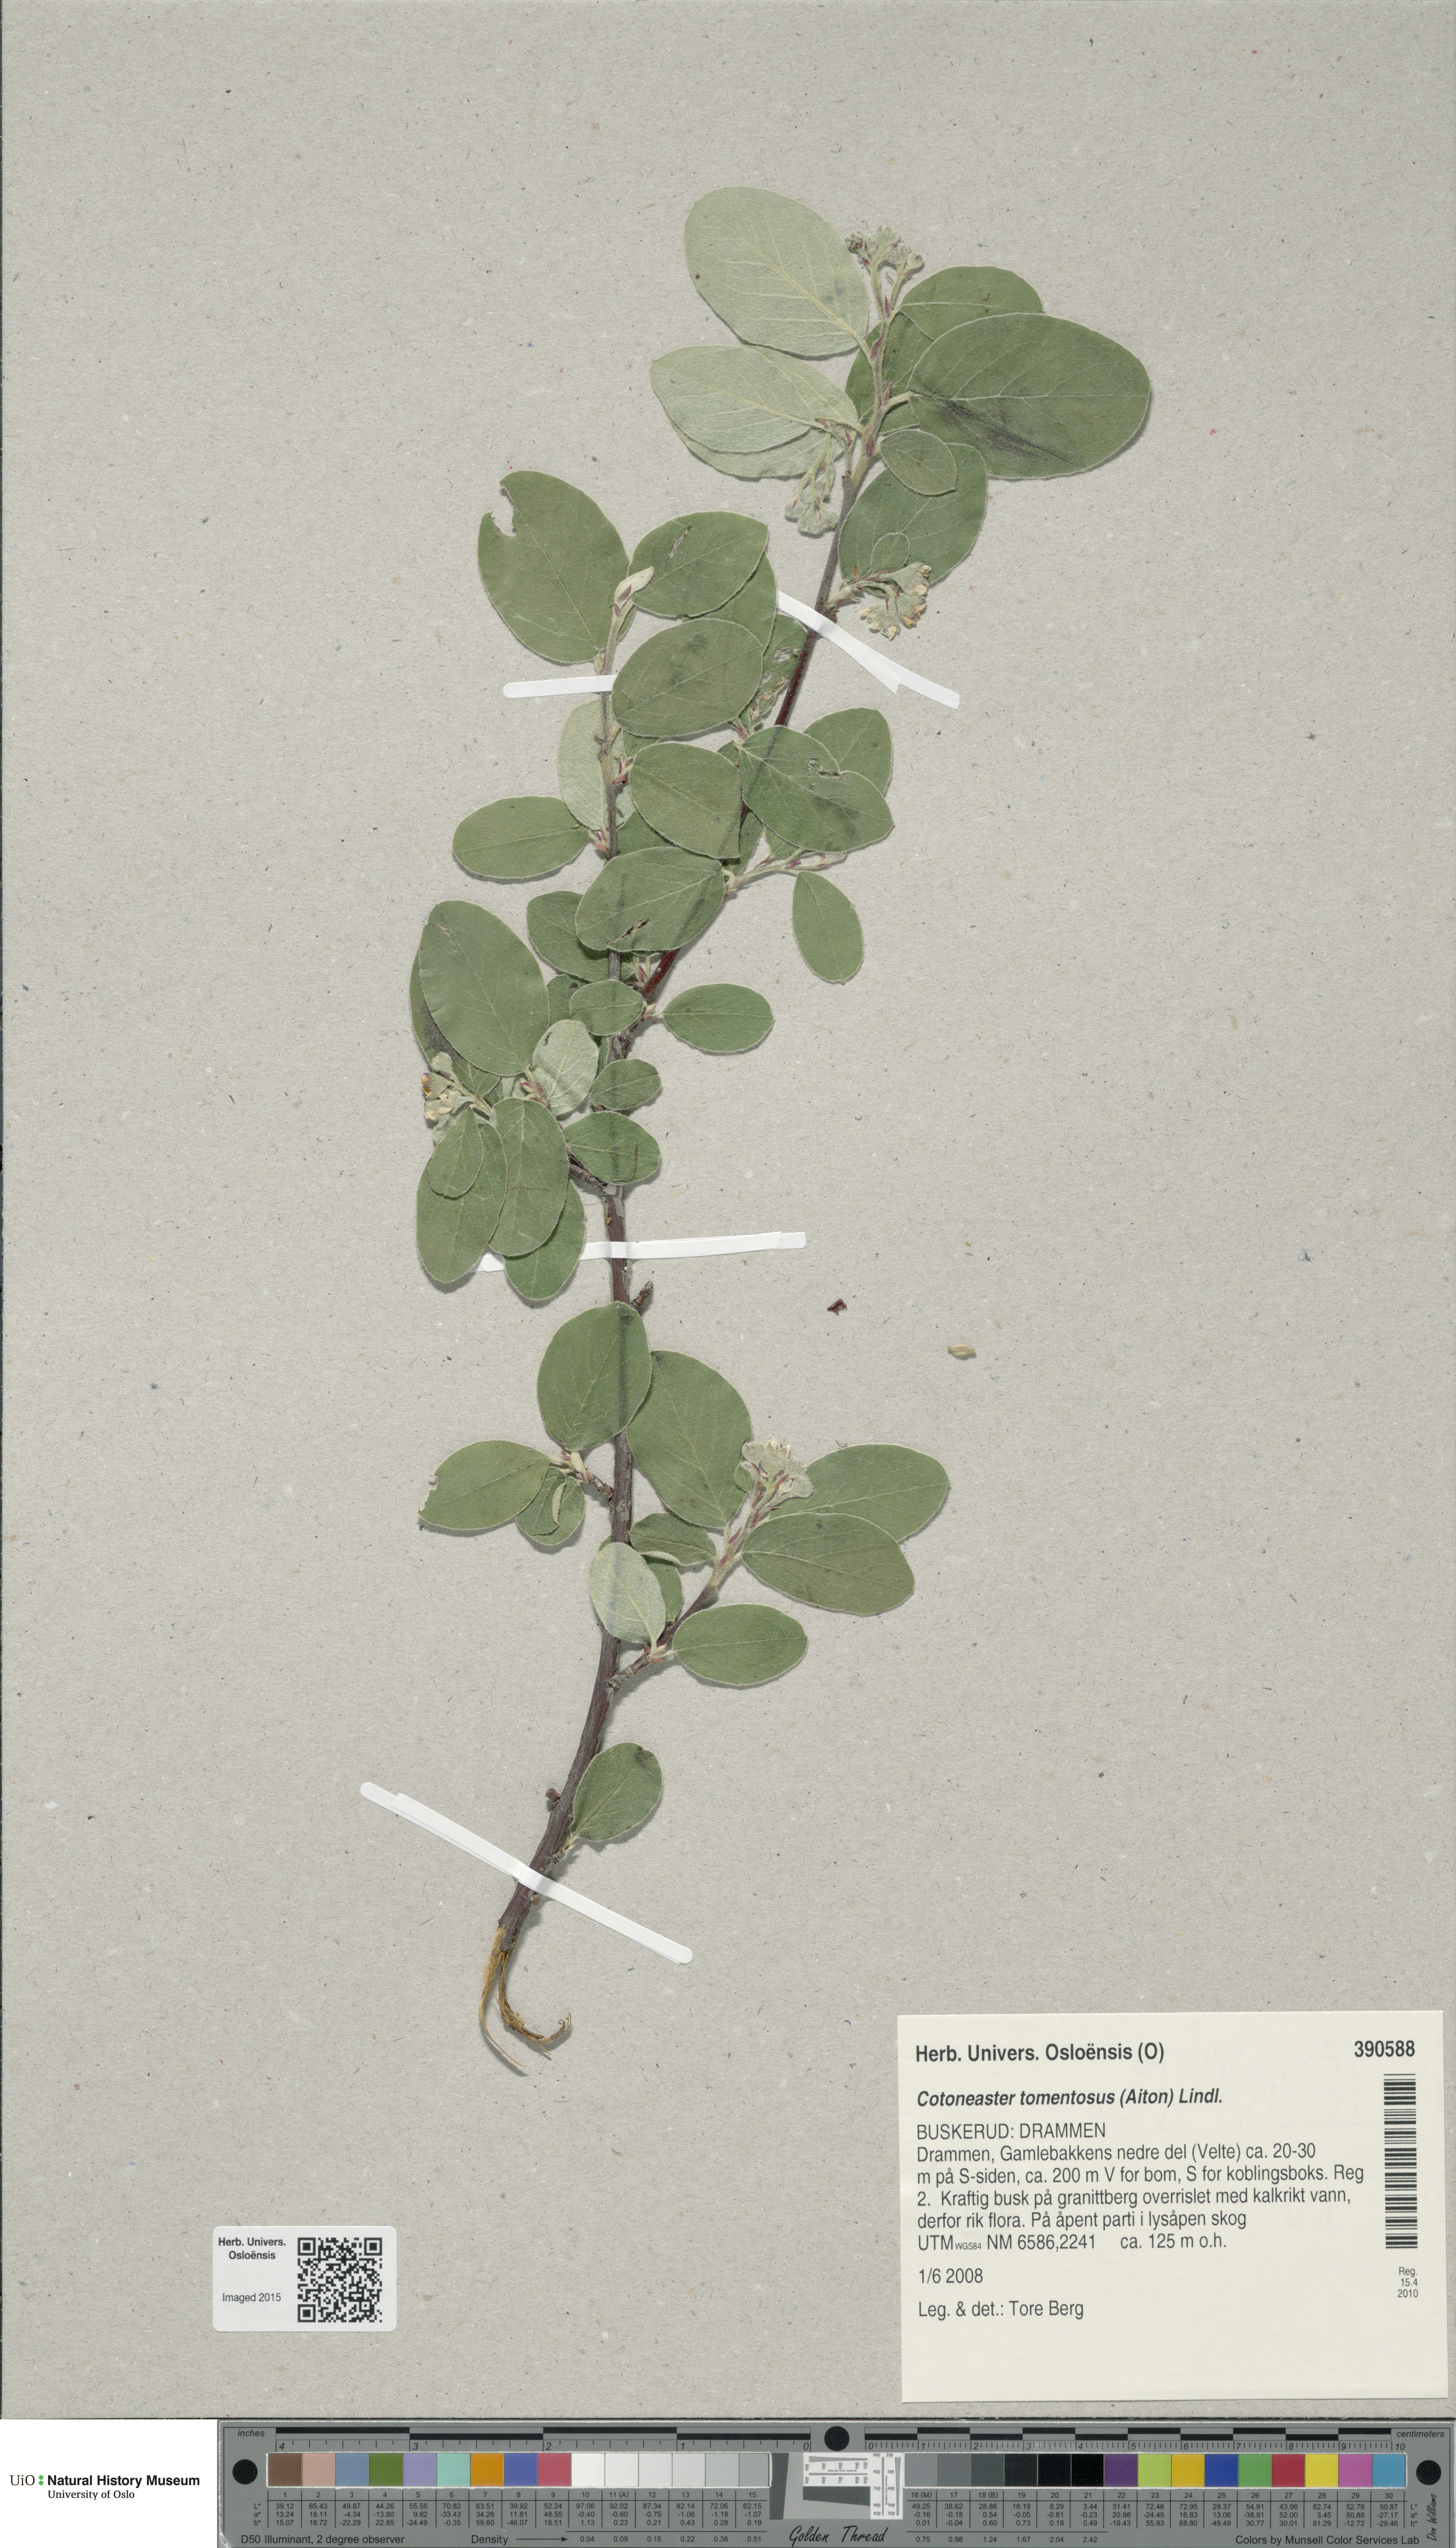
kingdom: Plantae
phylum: Tracheophyta
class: Magnoliopsida
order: Rosales
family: Rosaceae
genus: Cotoneaster
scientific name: Cotoneaster tomentosus
